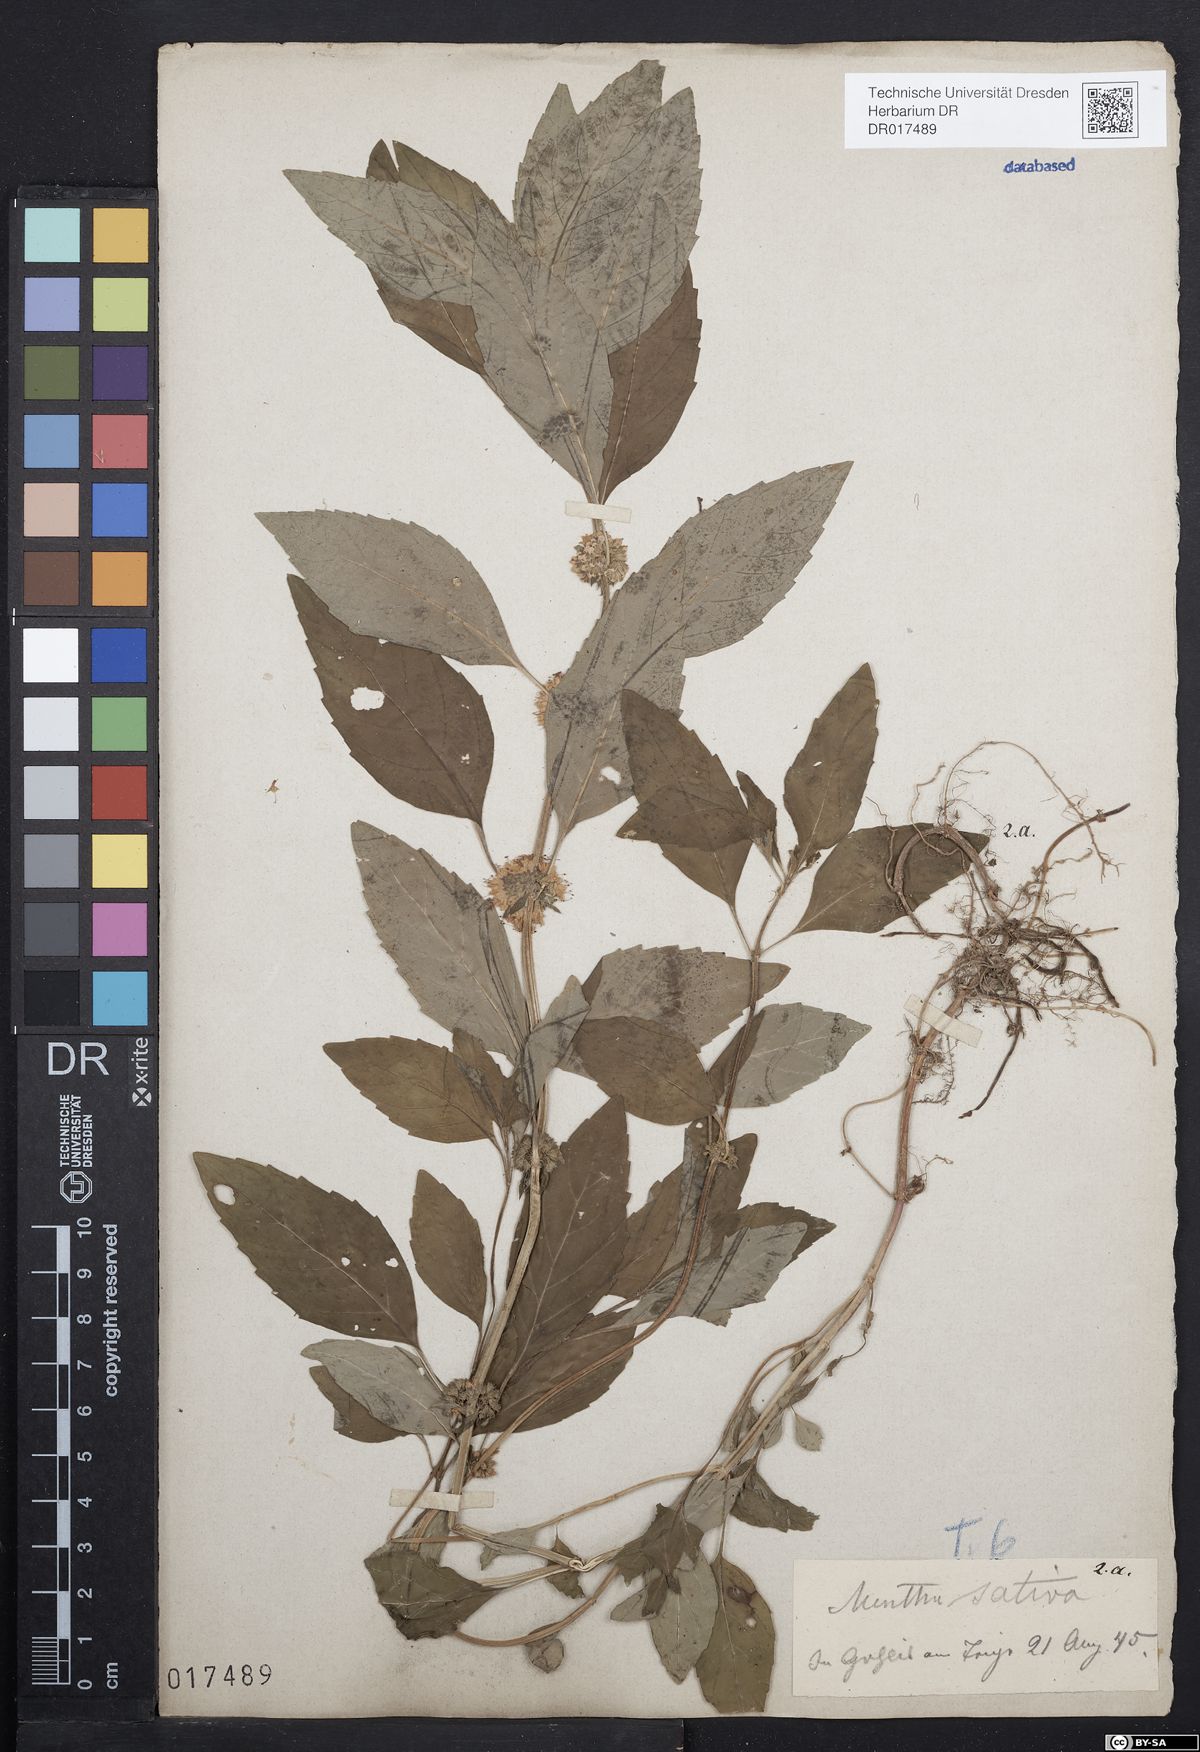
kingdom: Plantae
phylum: Tracheophyta
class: Magnoliopsida
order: Lamiales
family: Lamiaceae
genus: Mentha
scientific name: Mentha verticillata
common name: Mint
